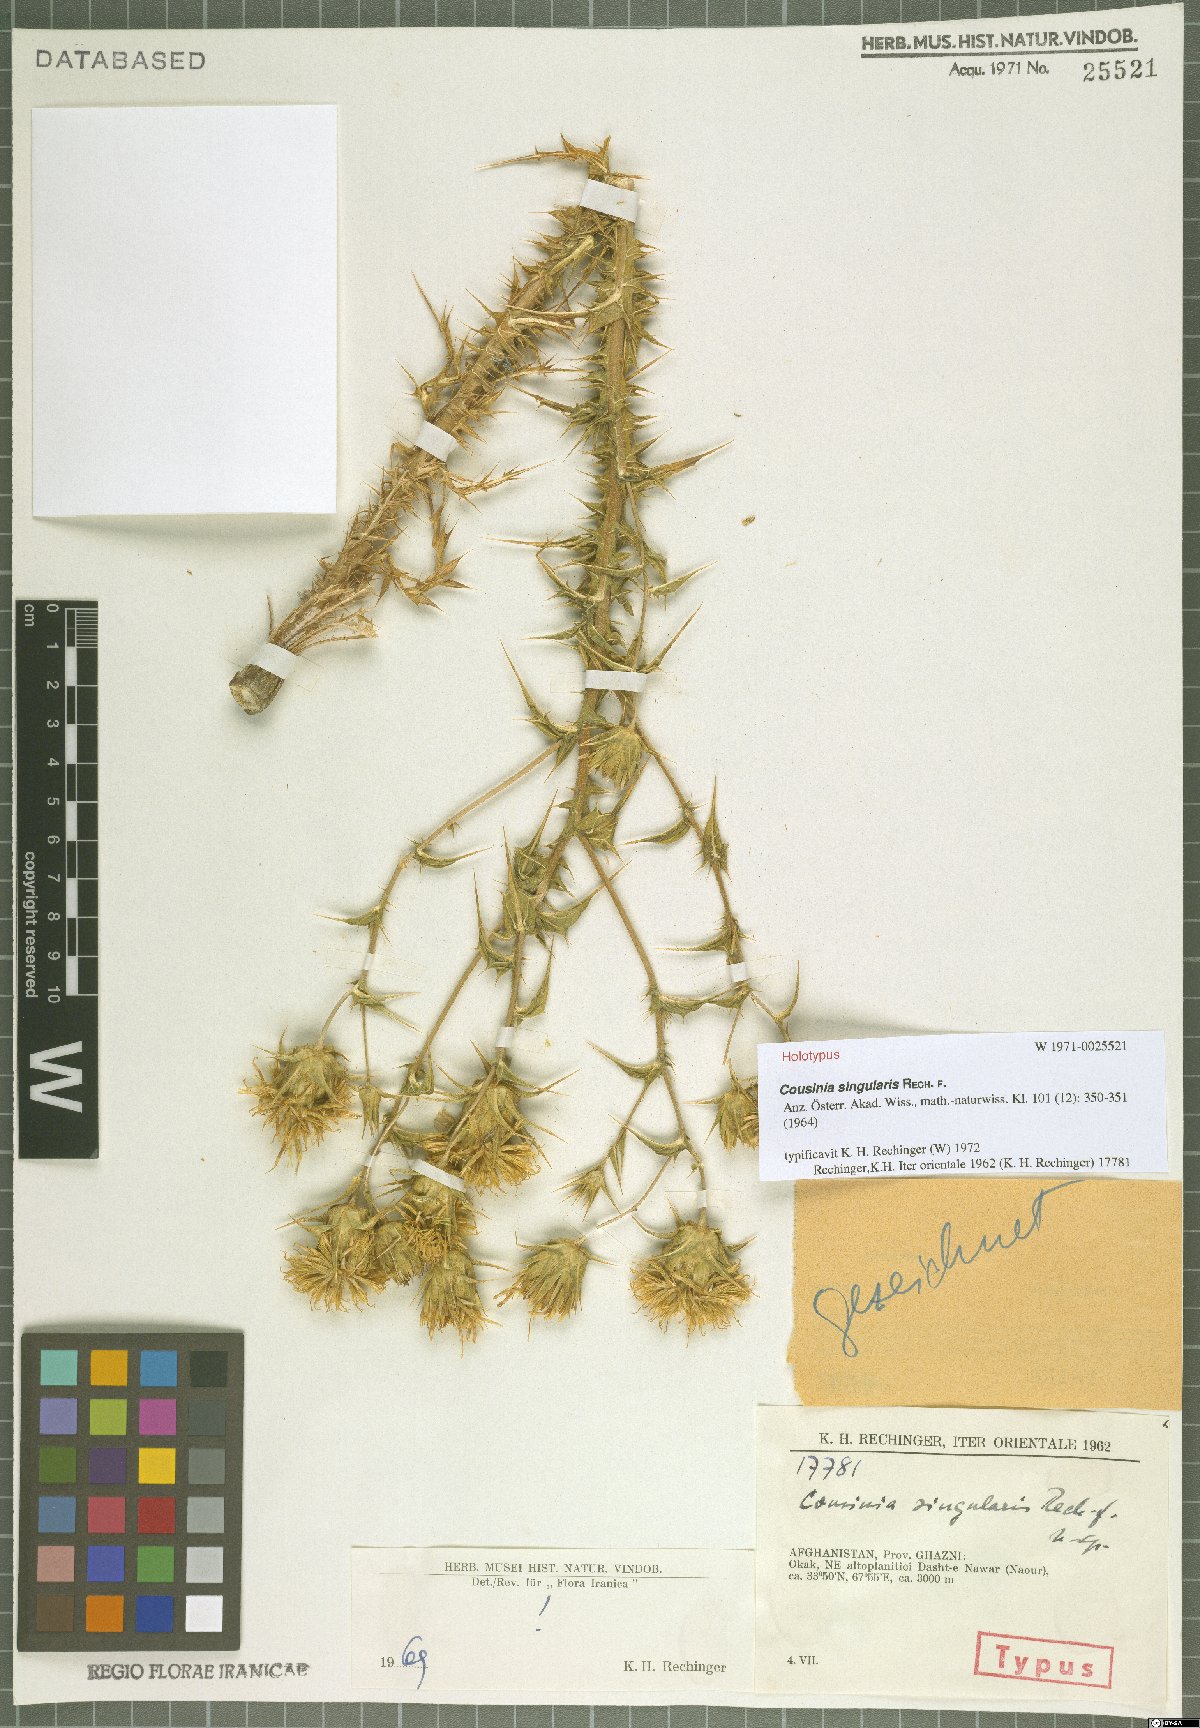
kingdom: Plantae
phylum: Tracheophyta
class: Magnoliopsida
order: Asterales
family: Asteraceae
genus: Cousinia
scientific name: Cousinia singularis
